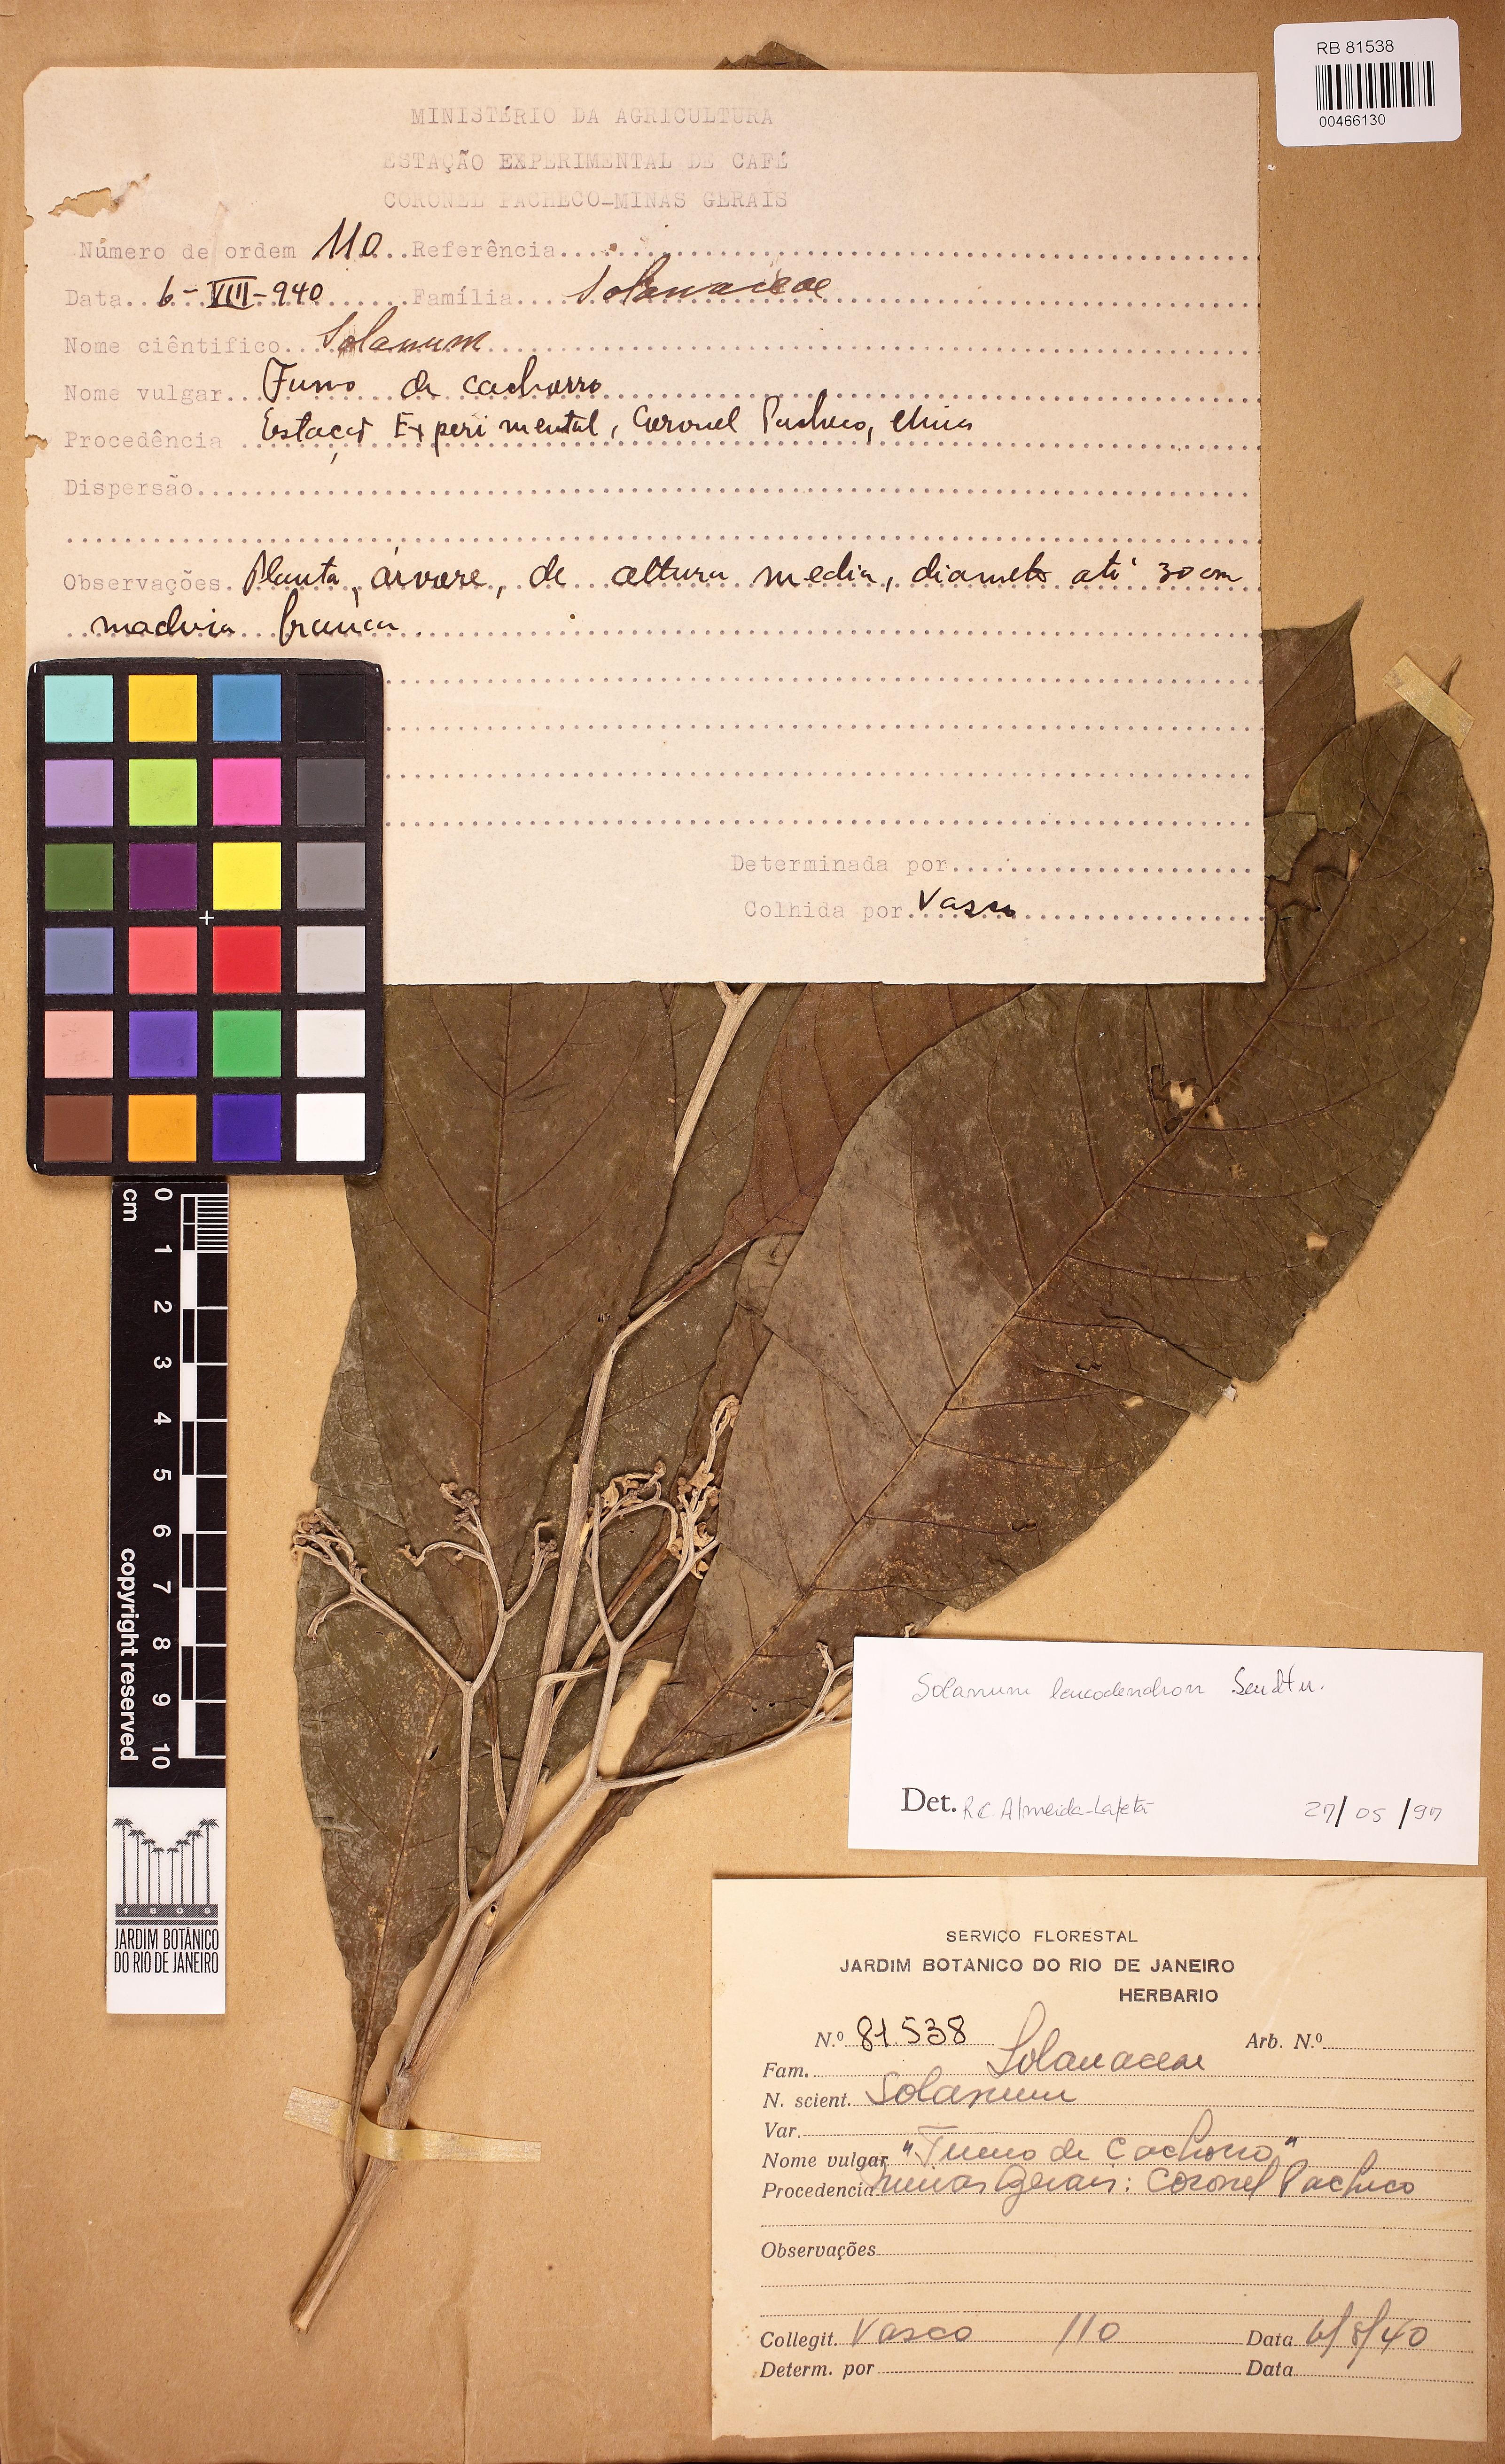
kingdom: Plantae
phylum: Tracheophyta
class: Magnoliopsida
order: Solanales
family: Solanaceae
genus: Solanum
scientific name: Solanum leucodendron
